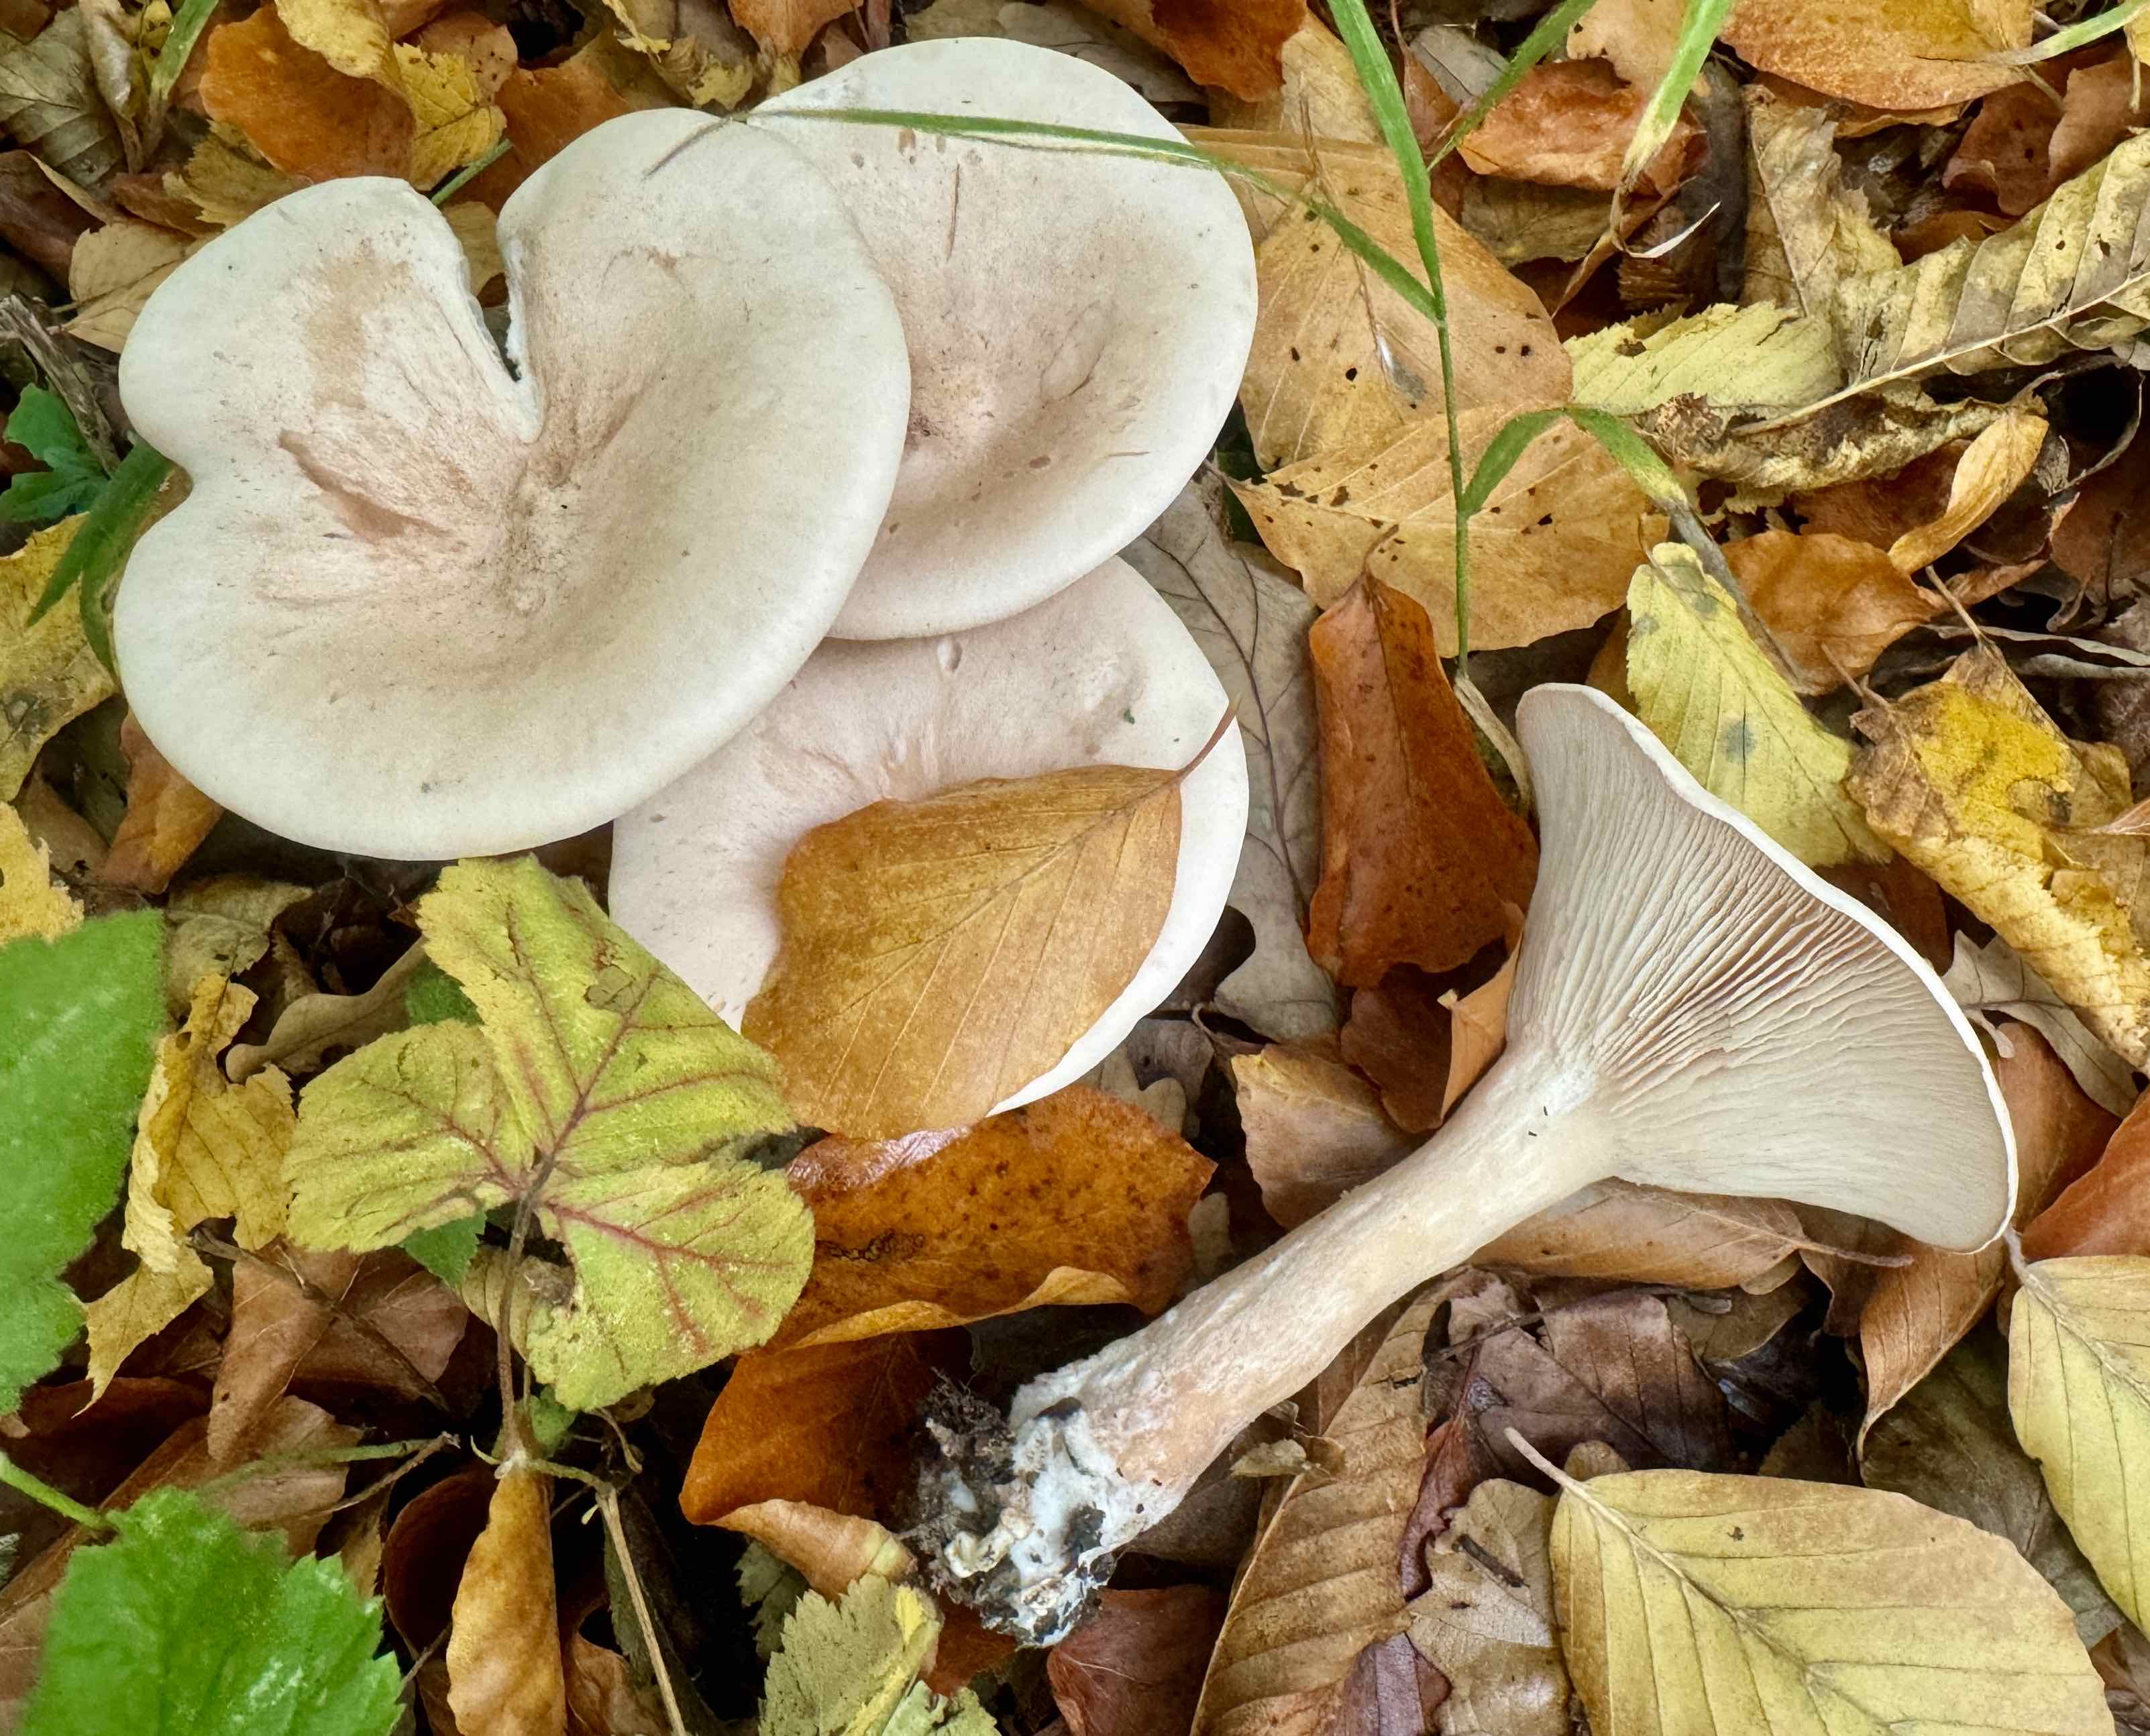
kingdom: Fungi
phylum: Basidiomycota
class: Agaricomycetes
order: Agaricales
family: Tricholomataceae
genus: Infundibulicybe
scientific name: Infundibulicybe geotropa
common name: stor tragthat
